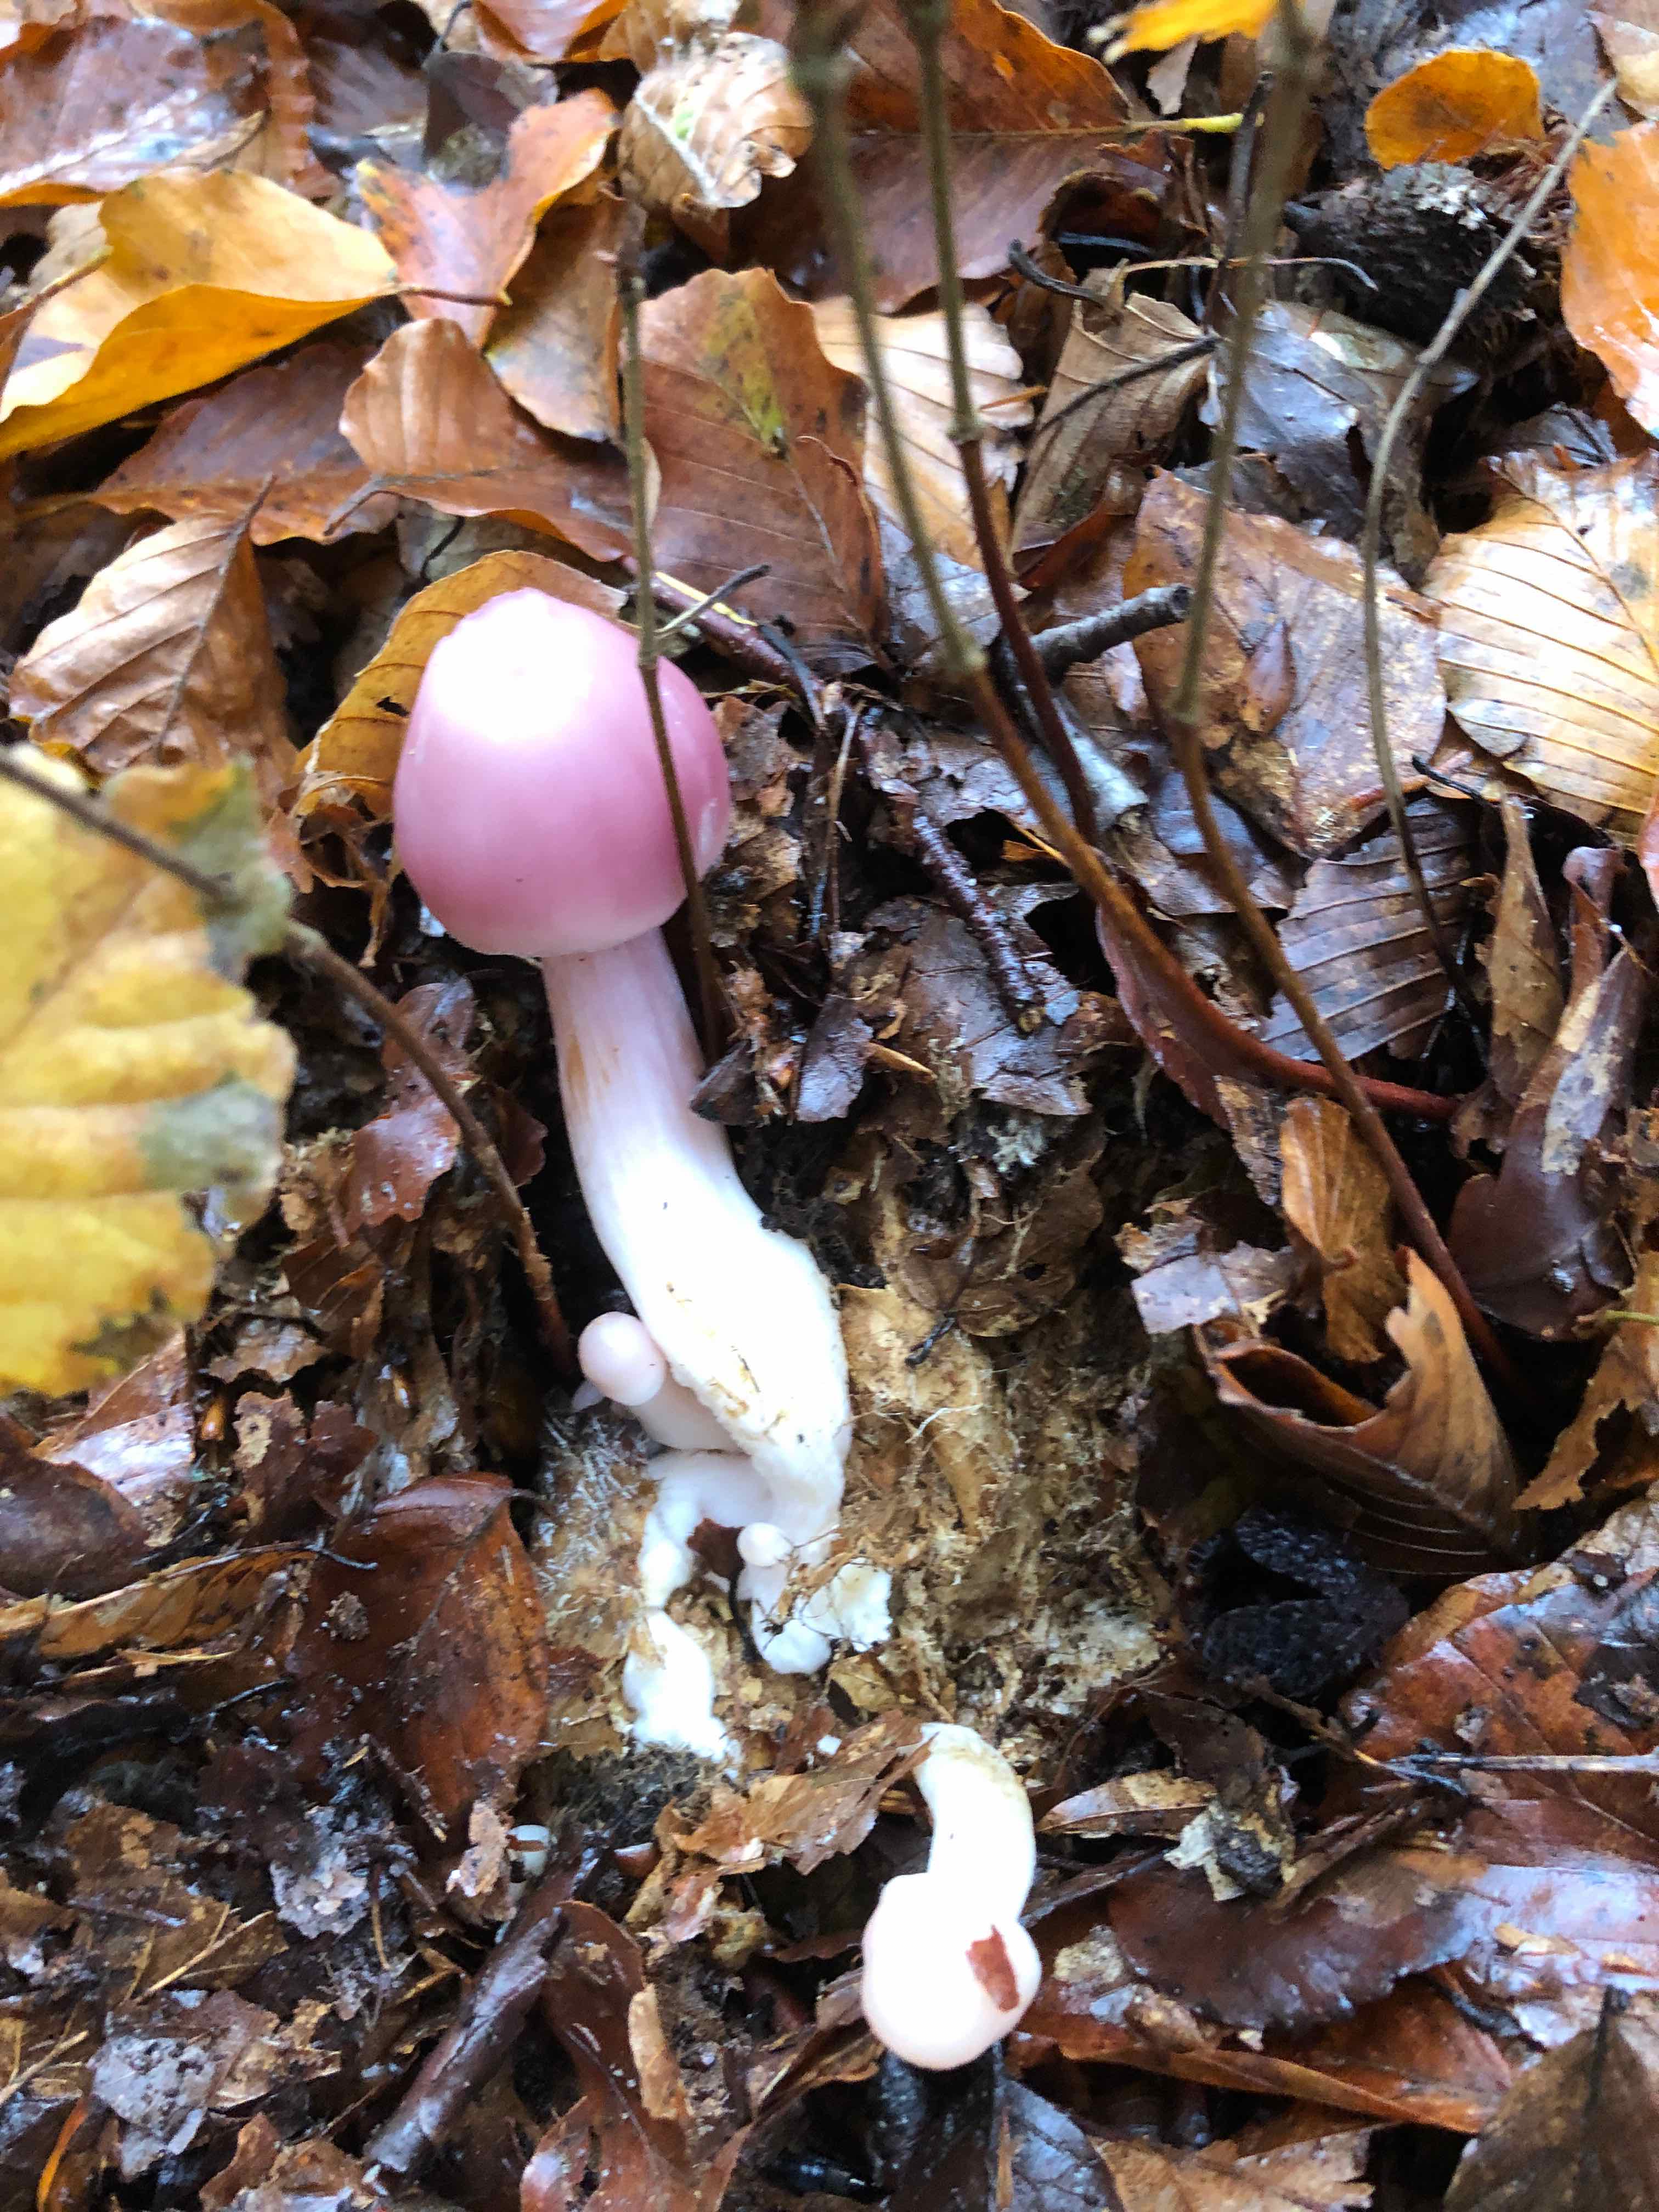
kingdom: Fungi
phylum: Basidiomycota
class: Agaricomycetes
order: Agaricales
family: Mycenaceae
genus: Mycena
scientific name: Mycena rosea
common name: rosa huesvamp
